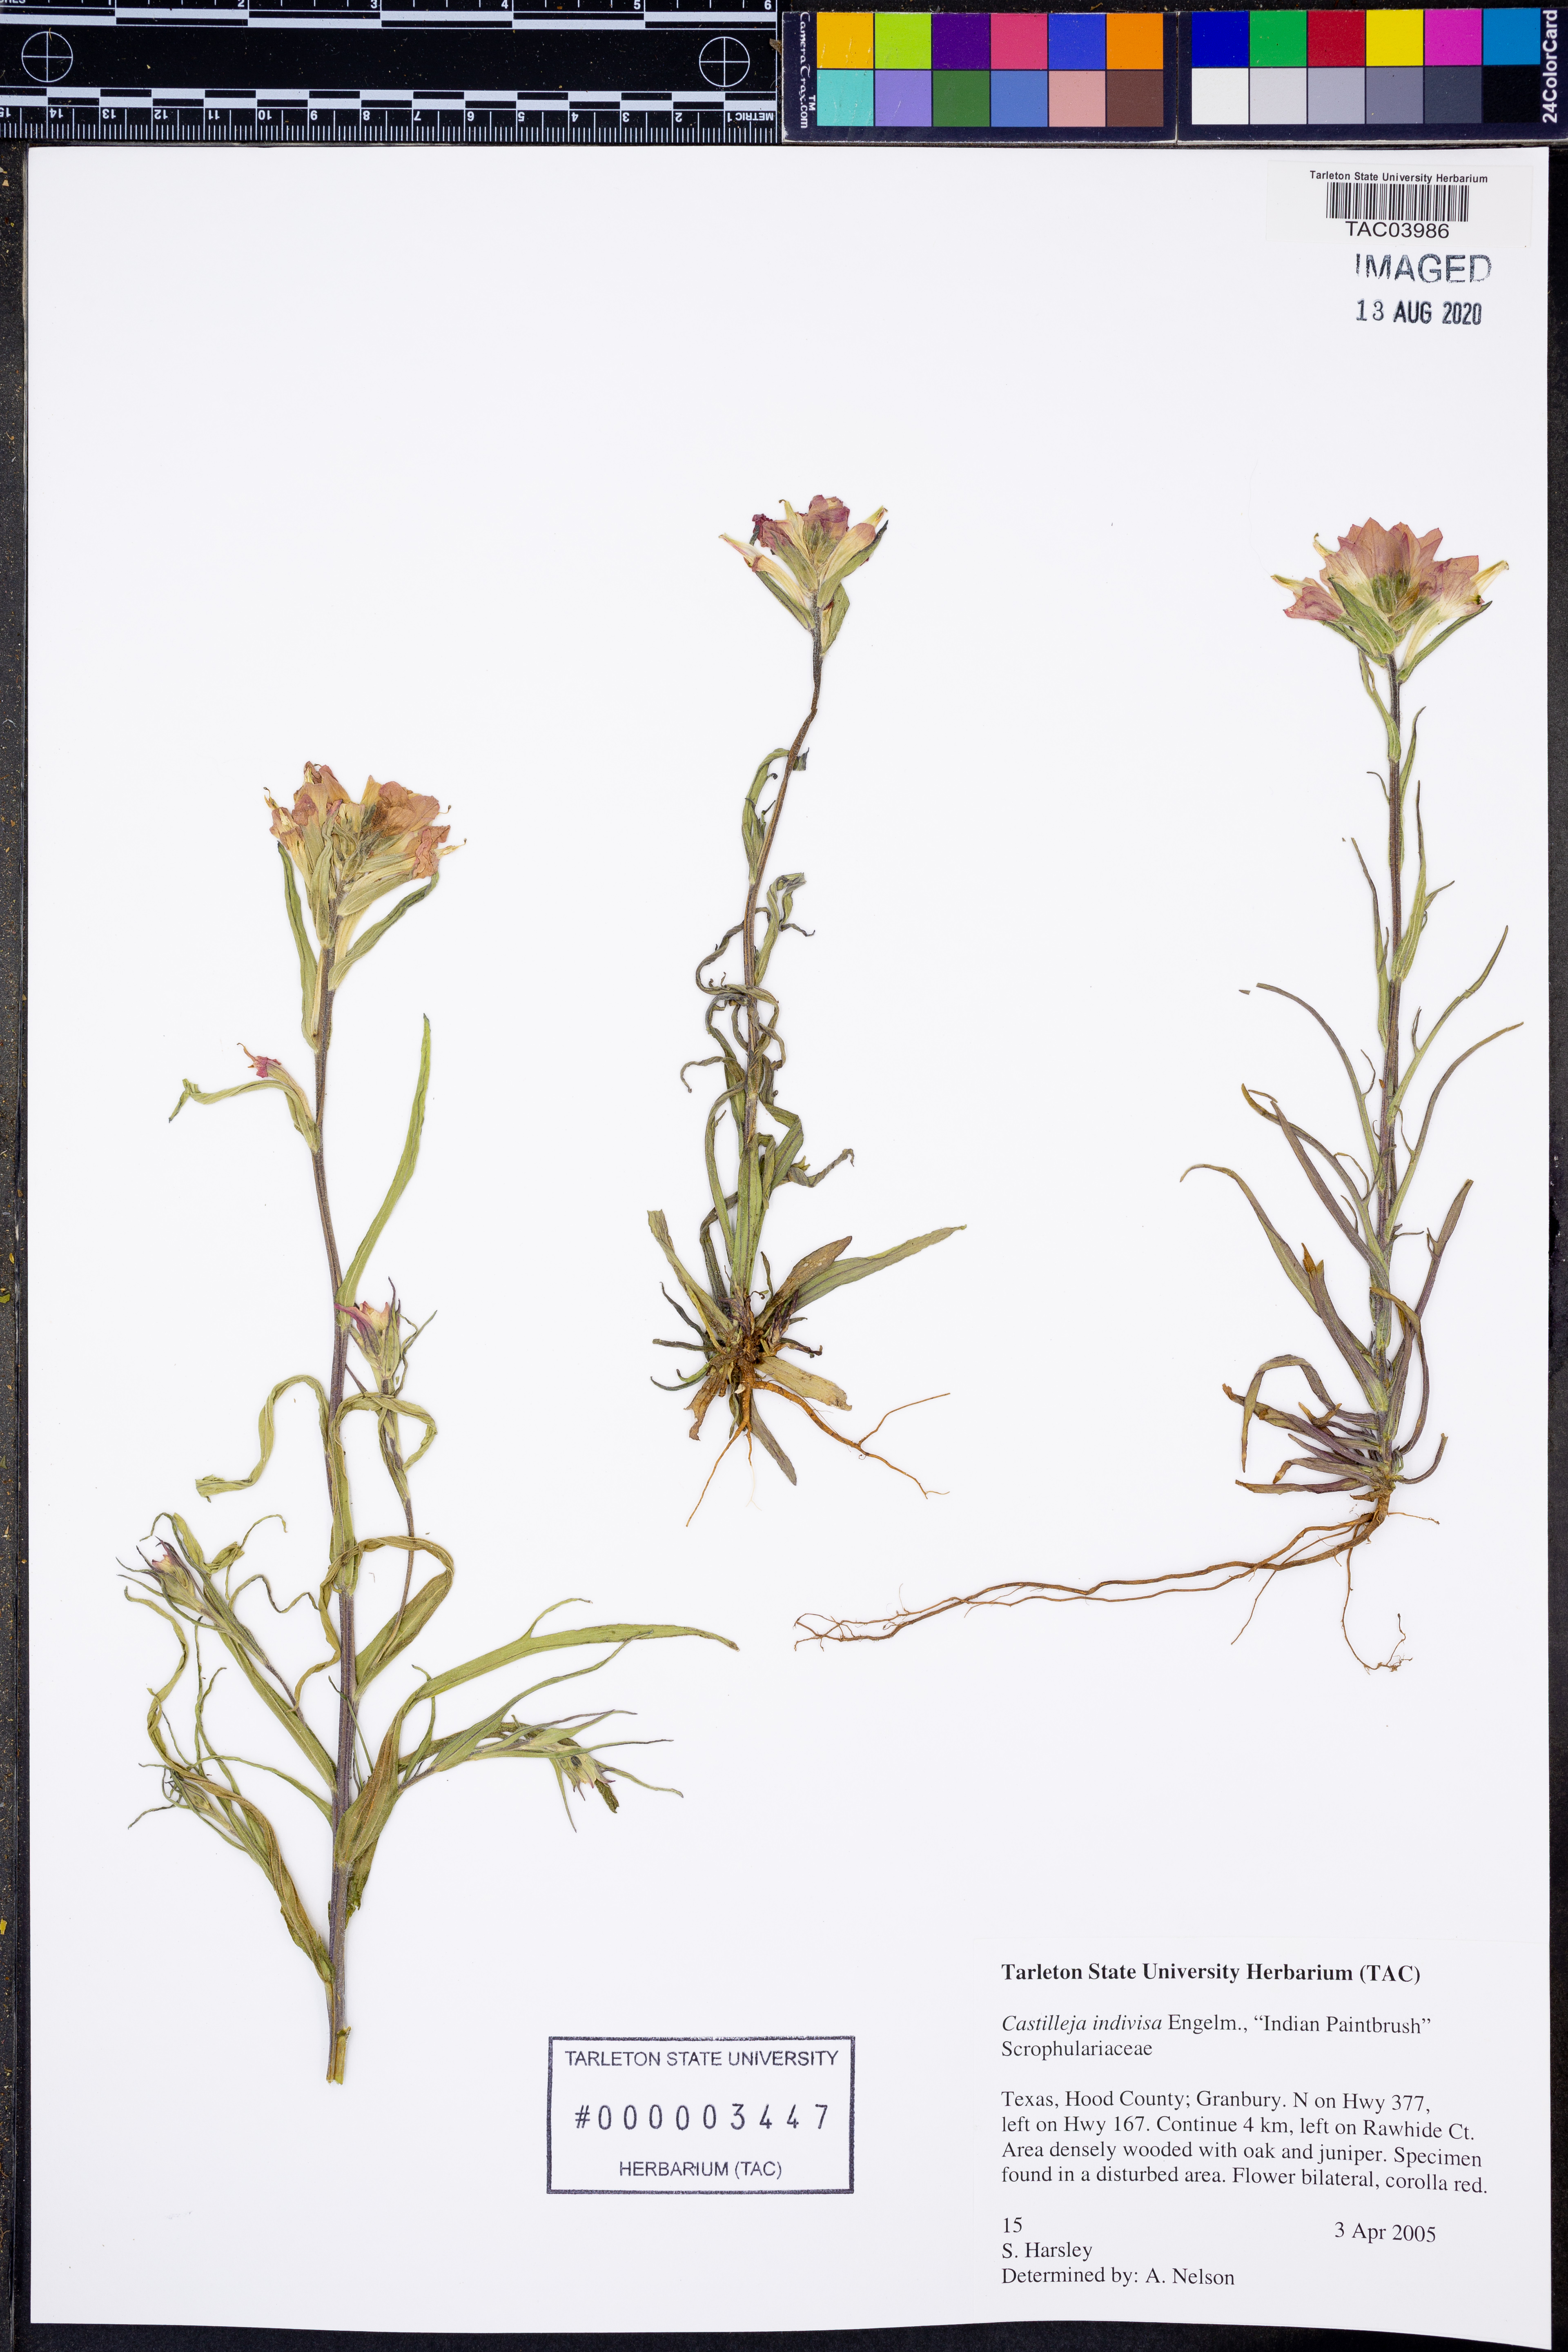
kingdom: Plantae
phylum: Tracheophyta
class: Magnoliopsida
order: Lamiales
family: Orobanchaceae
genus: Castilleja
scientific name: Castilleja indivisa
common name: Texas paintbrush
